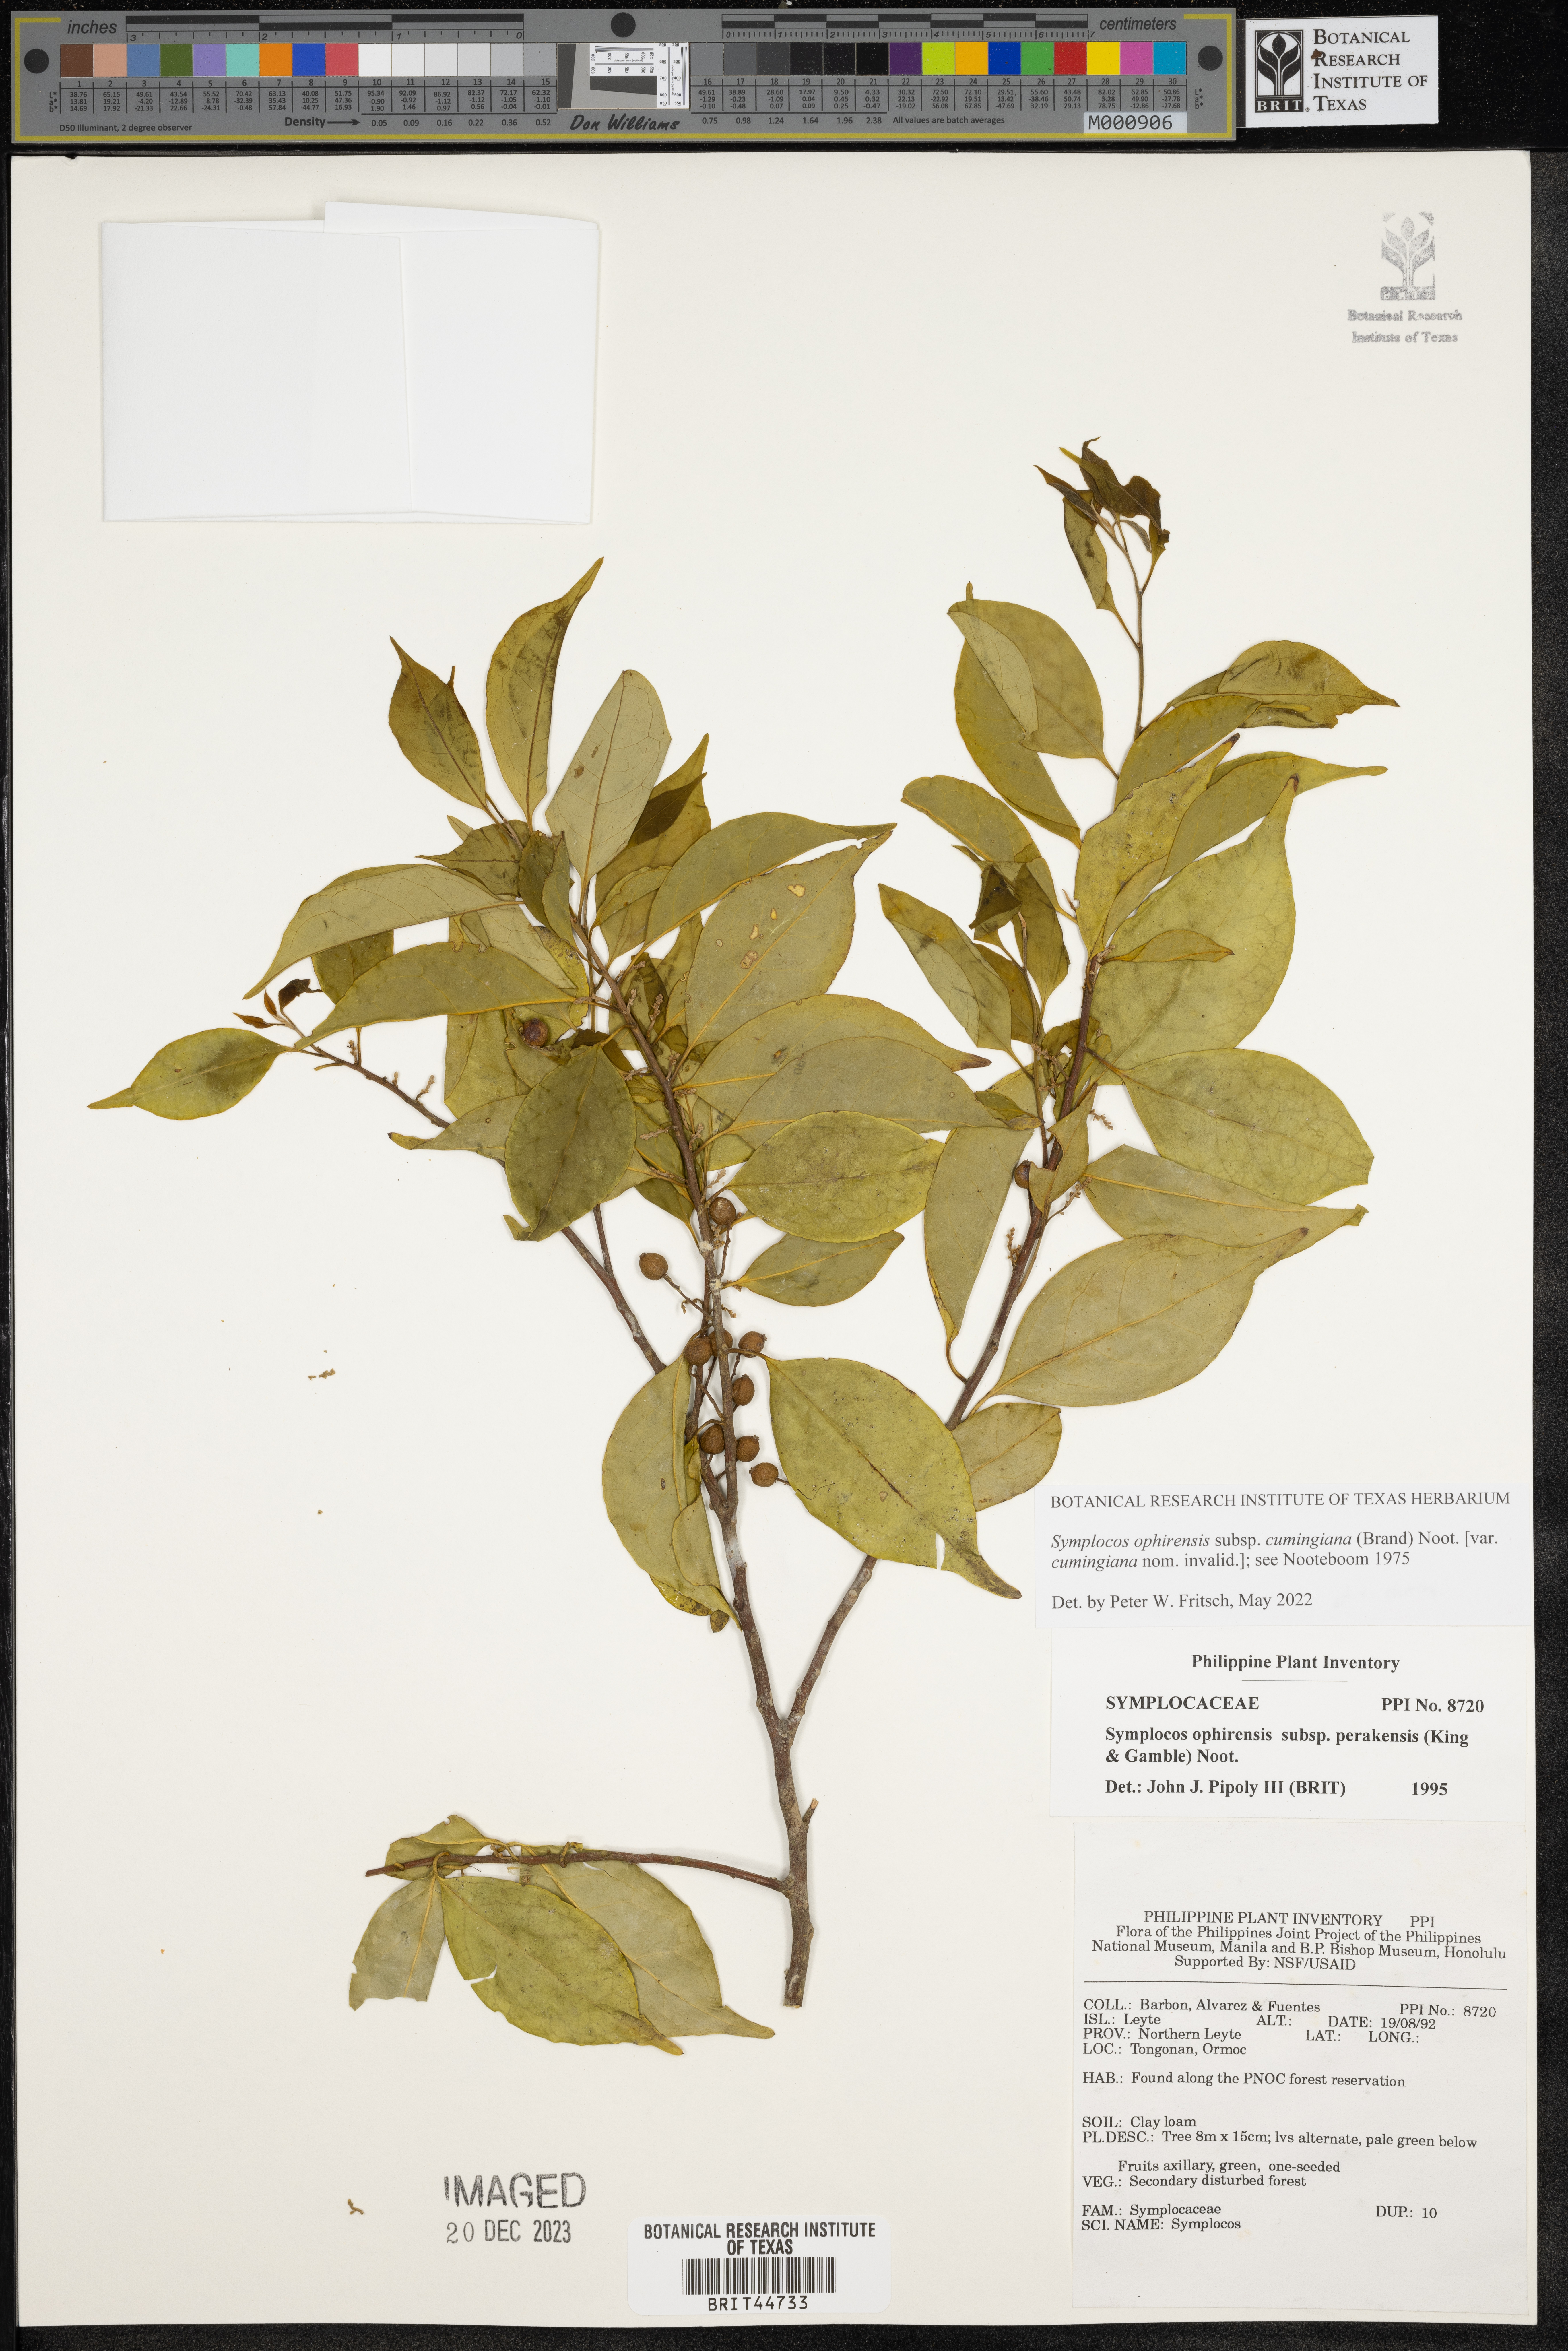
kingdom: Plantae
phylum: Tracheophyta
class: Magnoliopsida
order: Ericales
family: Symplocaceae
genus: Symplocos
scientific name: Symplocos ophirensis
